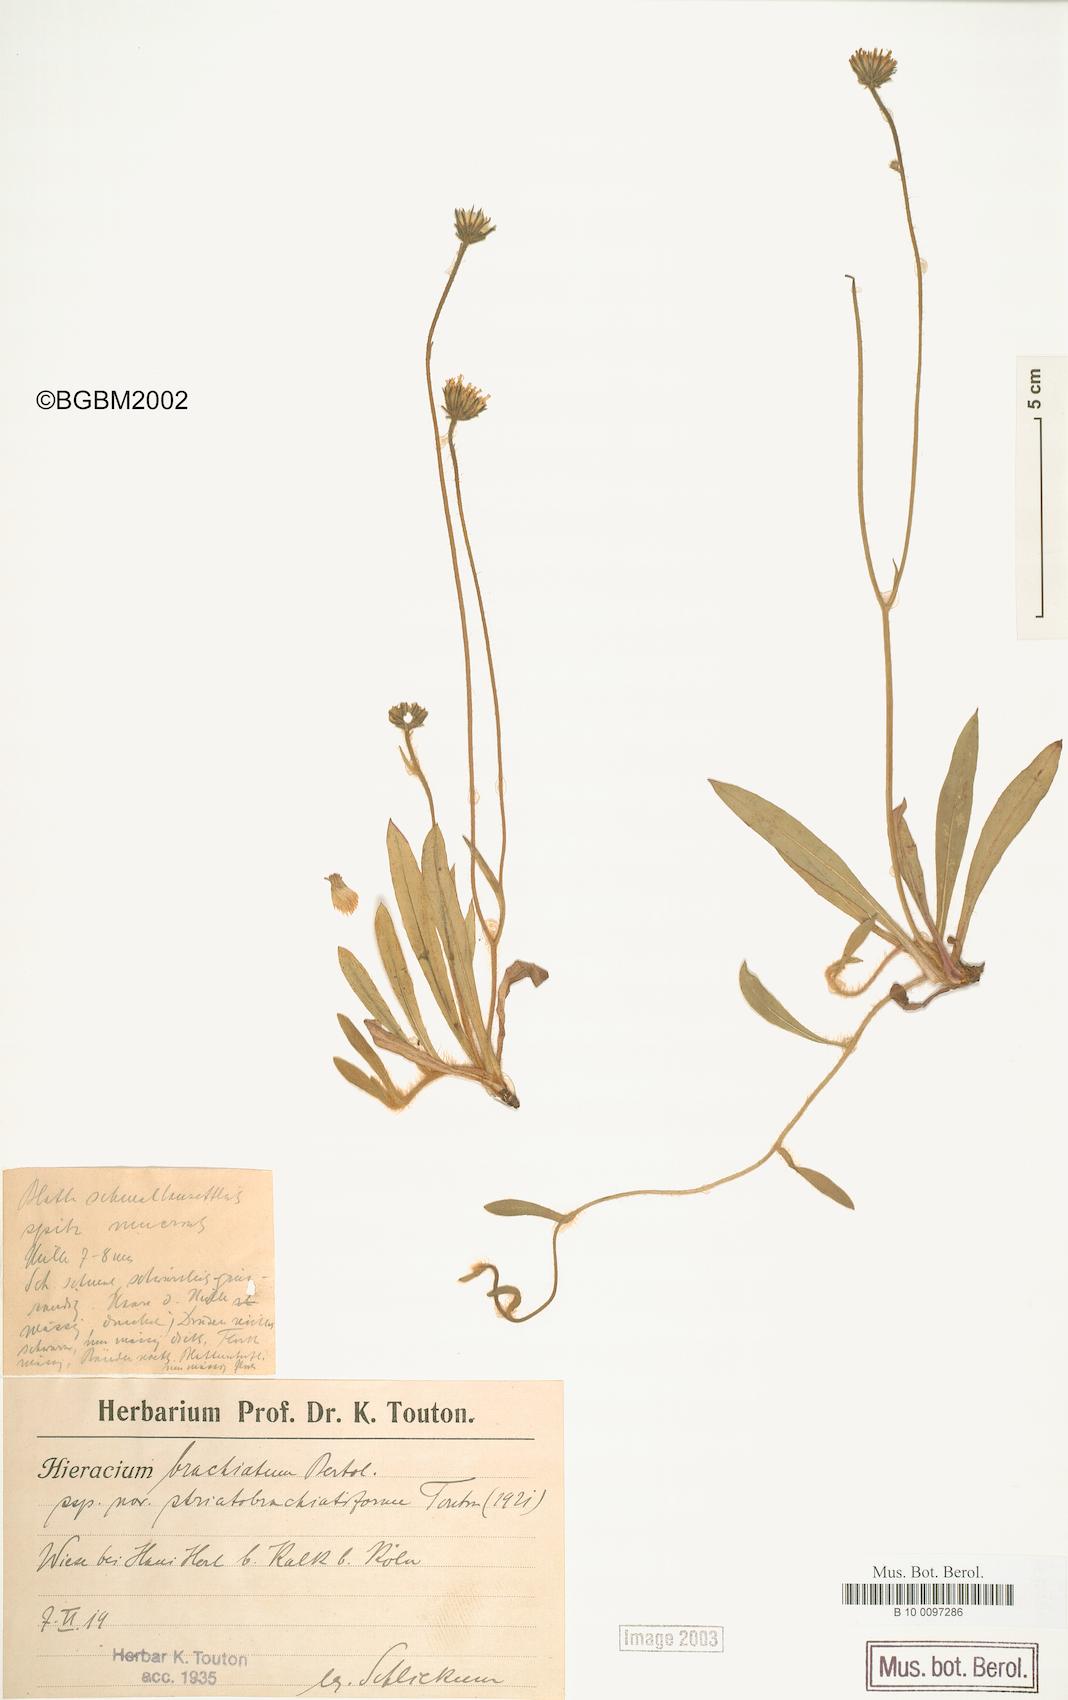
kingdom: Plantae
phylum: Tracheophyta
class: Magnoliopsida
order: Asterales
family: Asteraceae
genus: Pilosella
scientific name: Pilosella acutifolia
